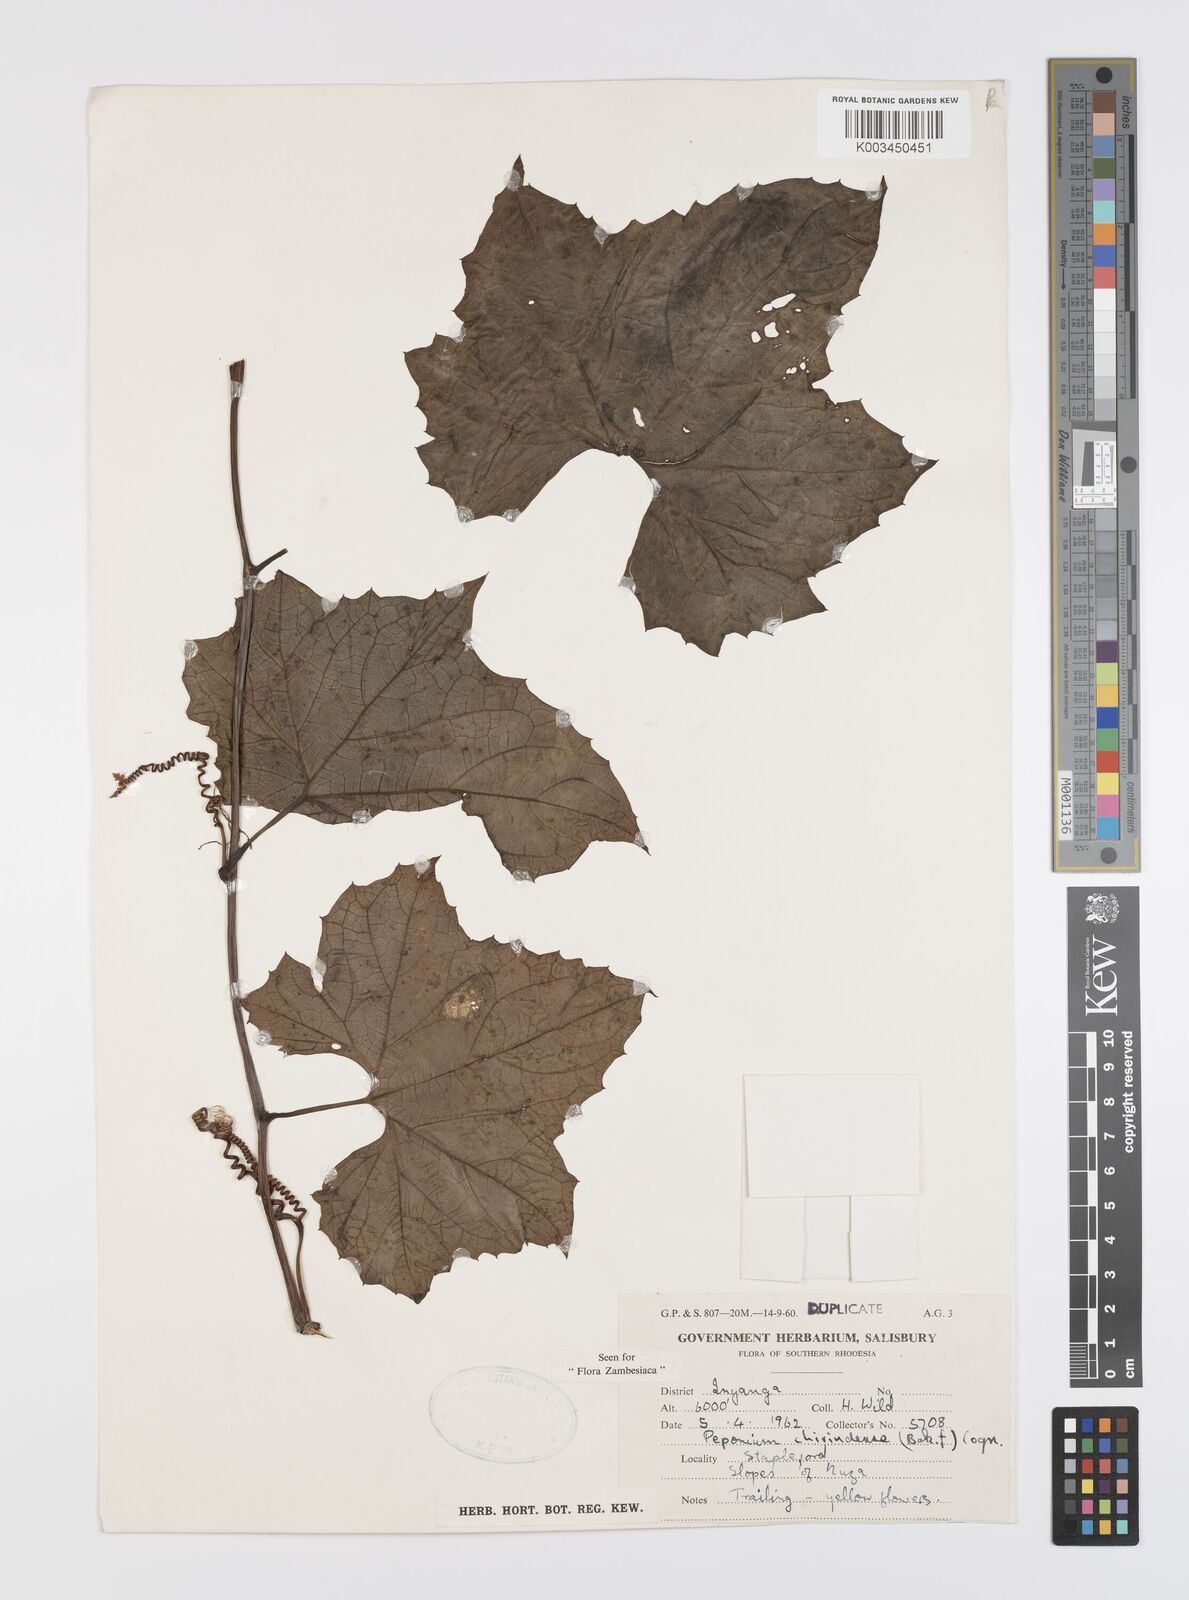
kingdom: Plantae
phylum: Tracheophyta
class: Magnoliopsida
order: Cucurbitales
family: Cucurbitaceae
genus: Peponium
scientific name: Peponium chirindense
